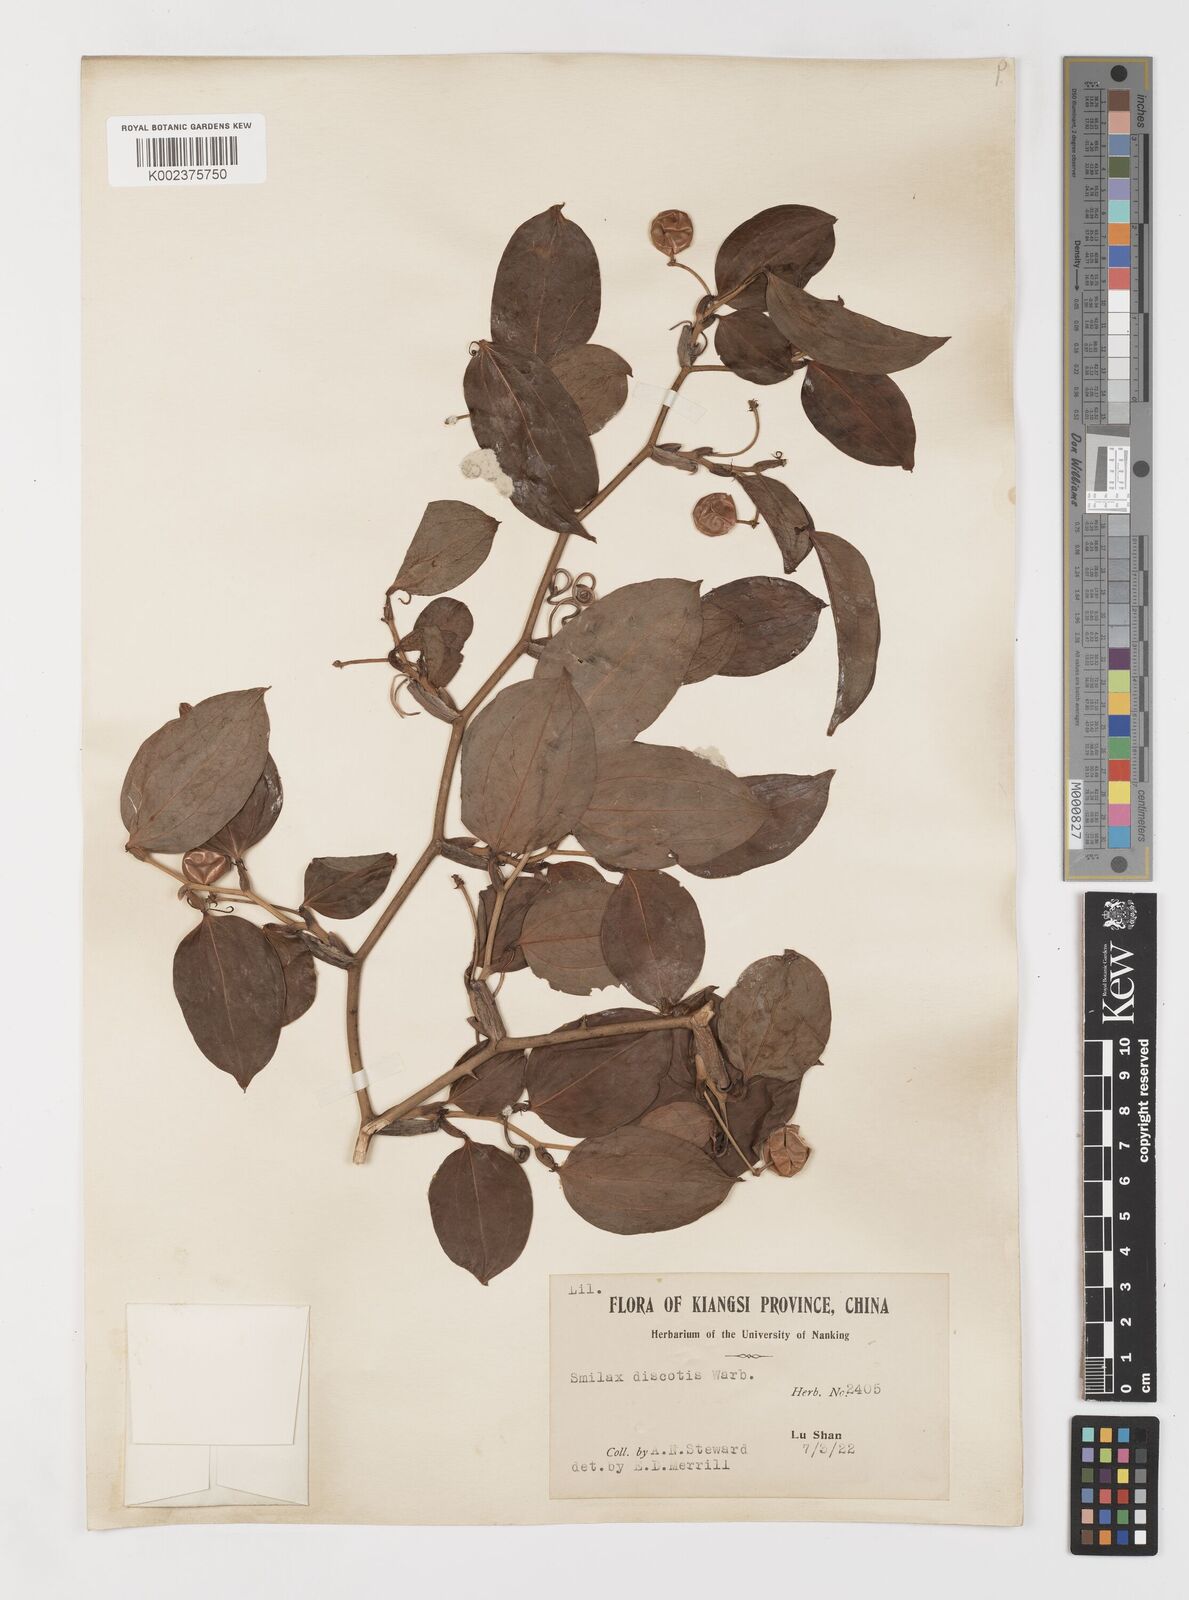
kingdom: Plantae
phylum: Tracheophyta
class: Liliopsida
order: Liliales
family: Smilacaceae
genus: Smilax
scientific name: Smilax china
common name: Chinaroot
